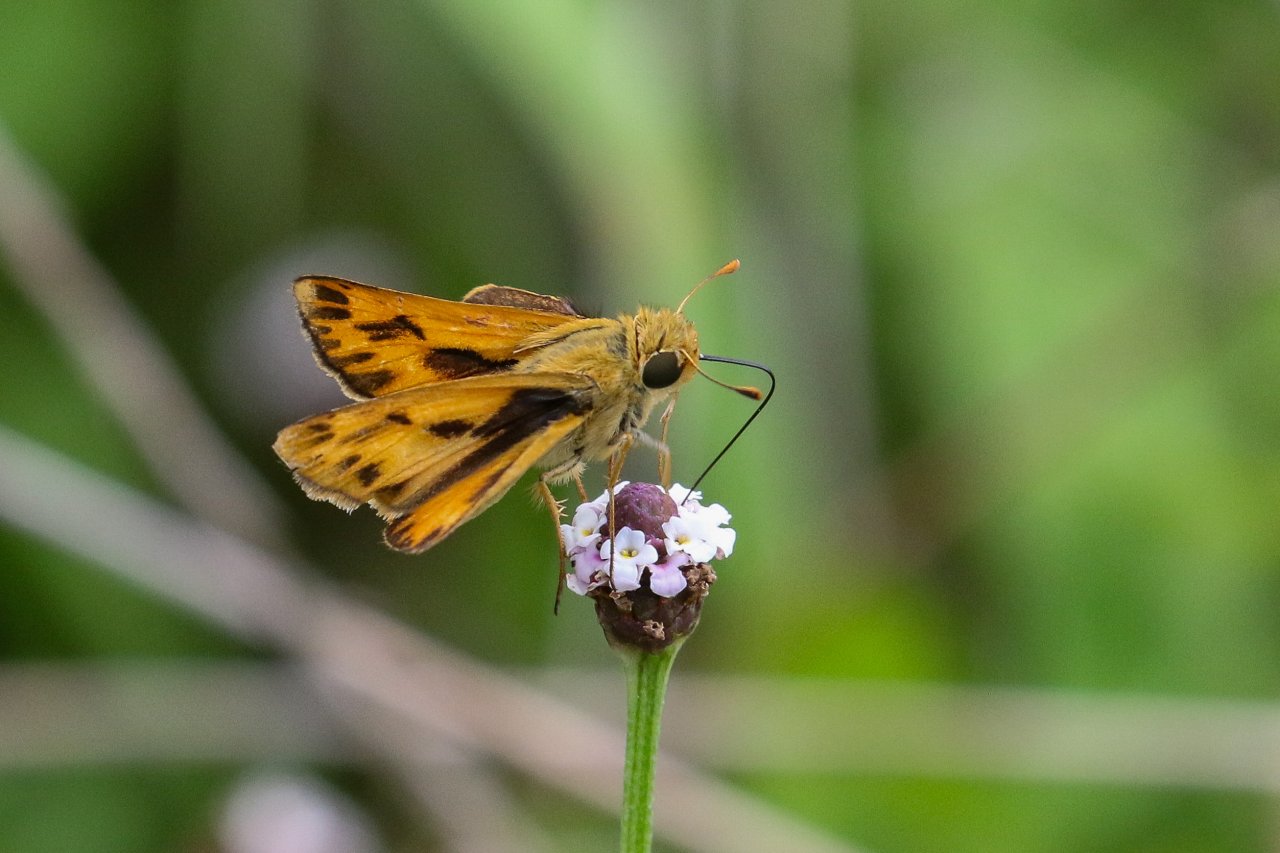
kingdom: Animalia
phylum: Arthropoda
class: Insecta
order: Lepidoptera
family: Hesperiidae
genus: Hylephila
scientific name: Hylephila phyleus
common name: Fiery Skipper
